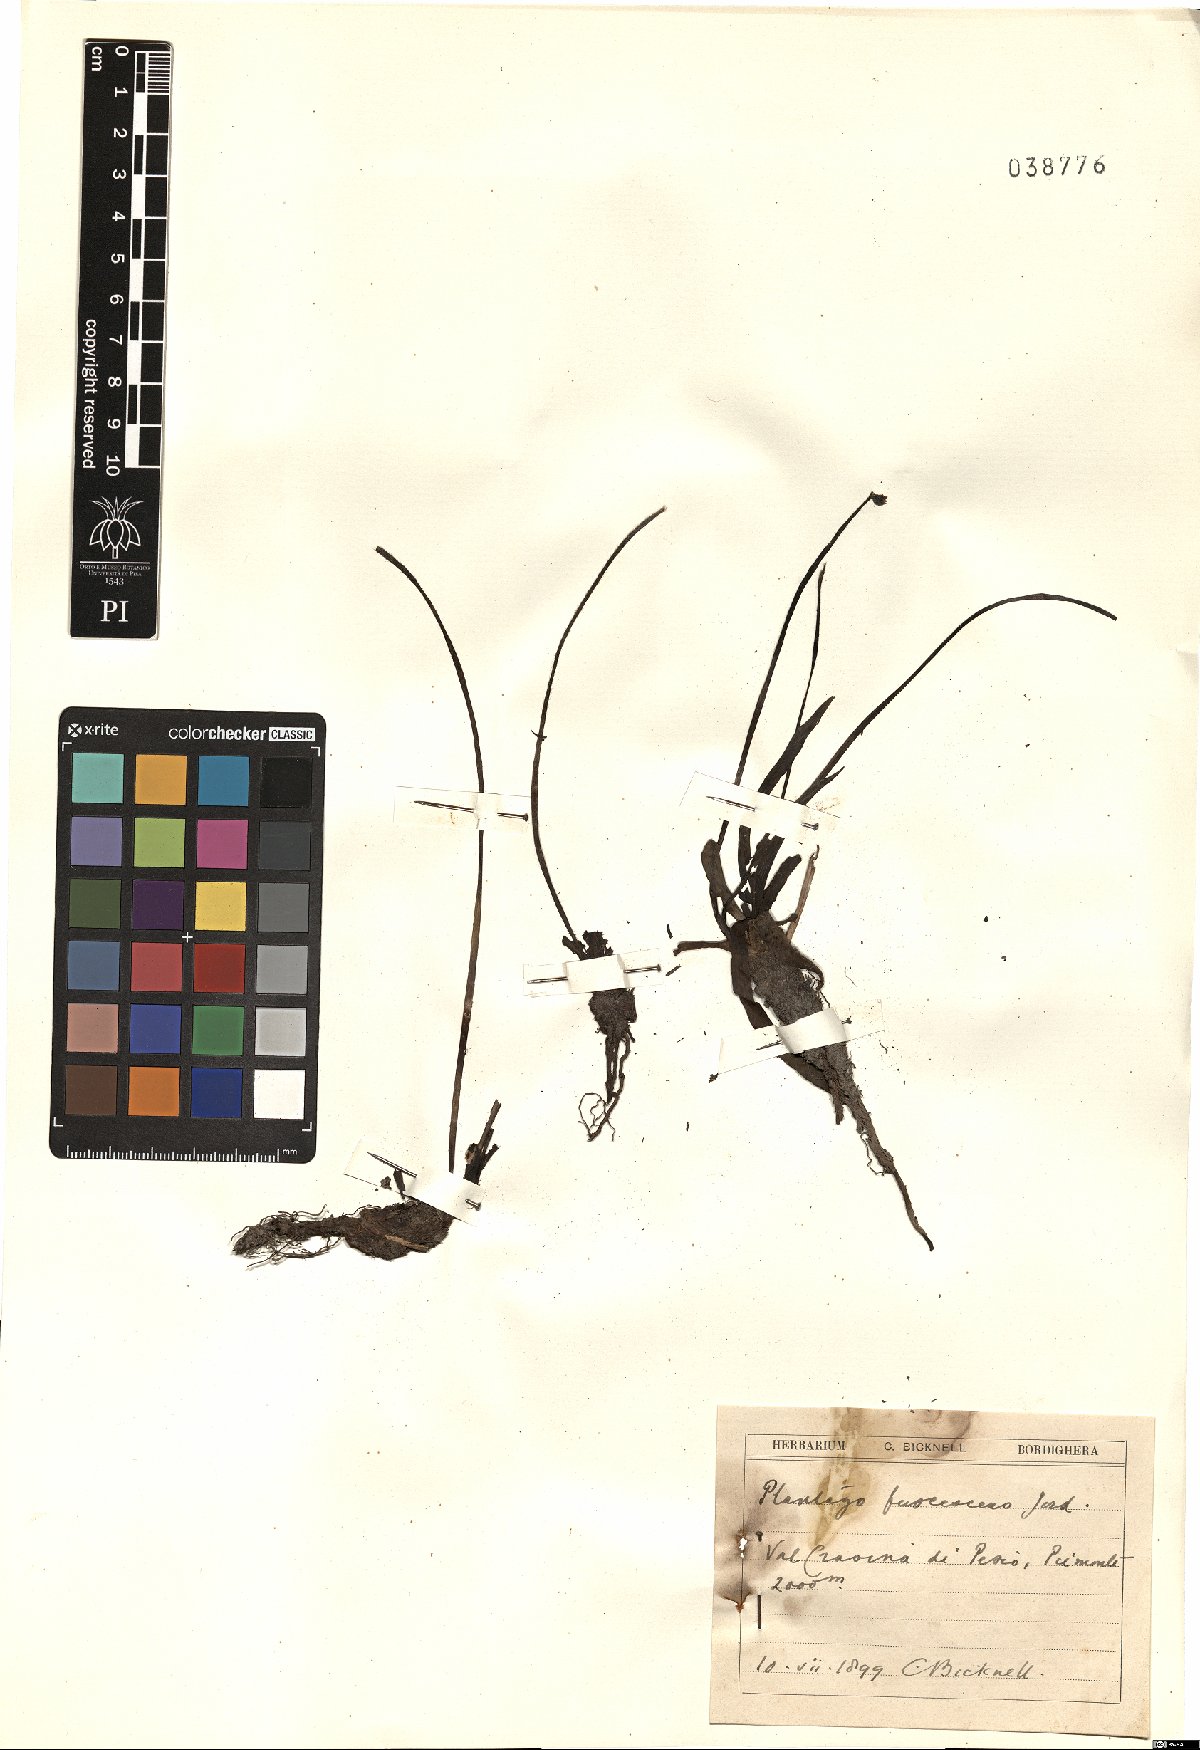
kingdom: Plantae
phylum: Tracheophyta
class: Magnoliopsida
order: Lamiales
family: Plantaginaceae
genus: Plantago
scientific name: Plantago atrata
